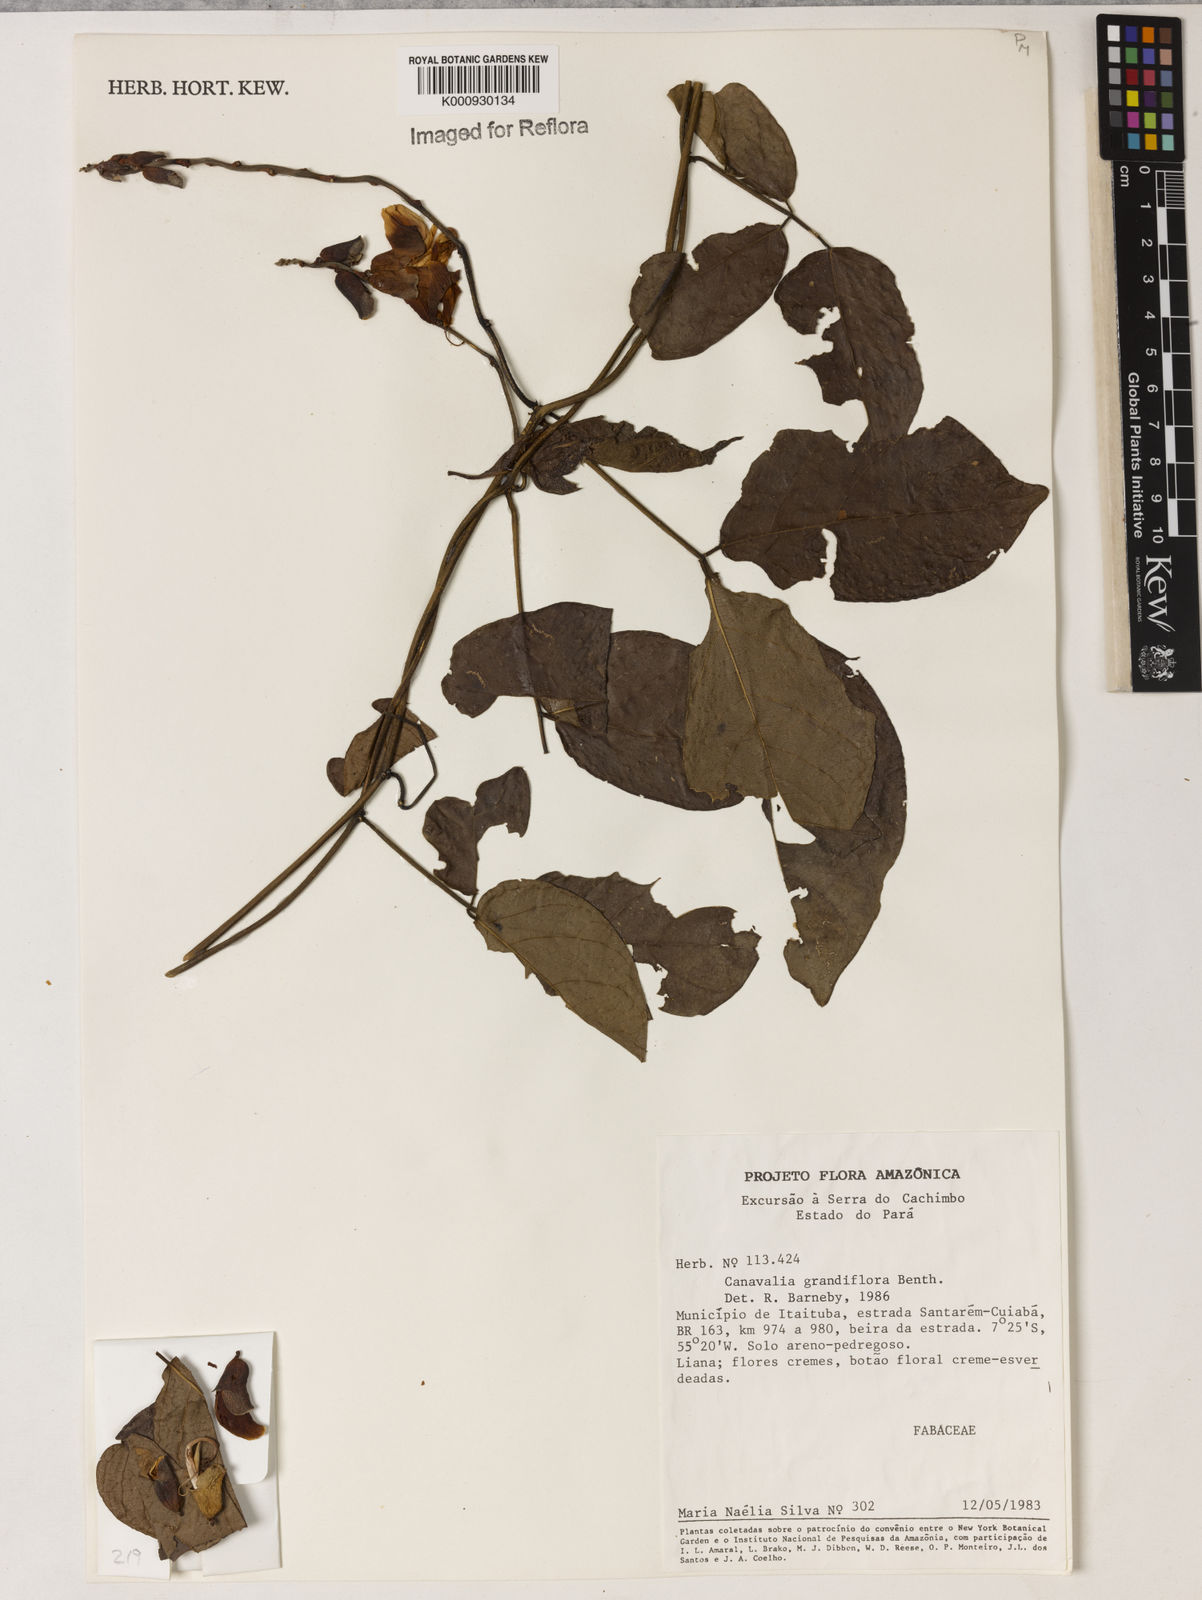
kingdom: Plantae
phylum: Tracheophyta
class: Magnoliopsida
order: Fabales
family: Fabaceae
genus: Canavalia
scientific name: Canavalia grandiflora
